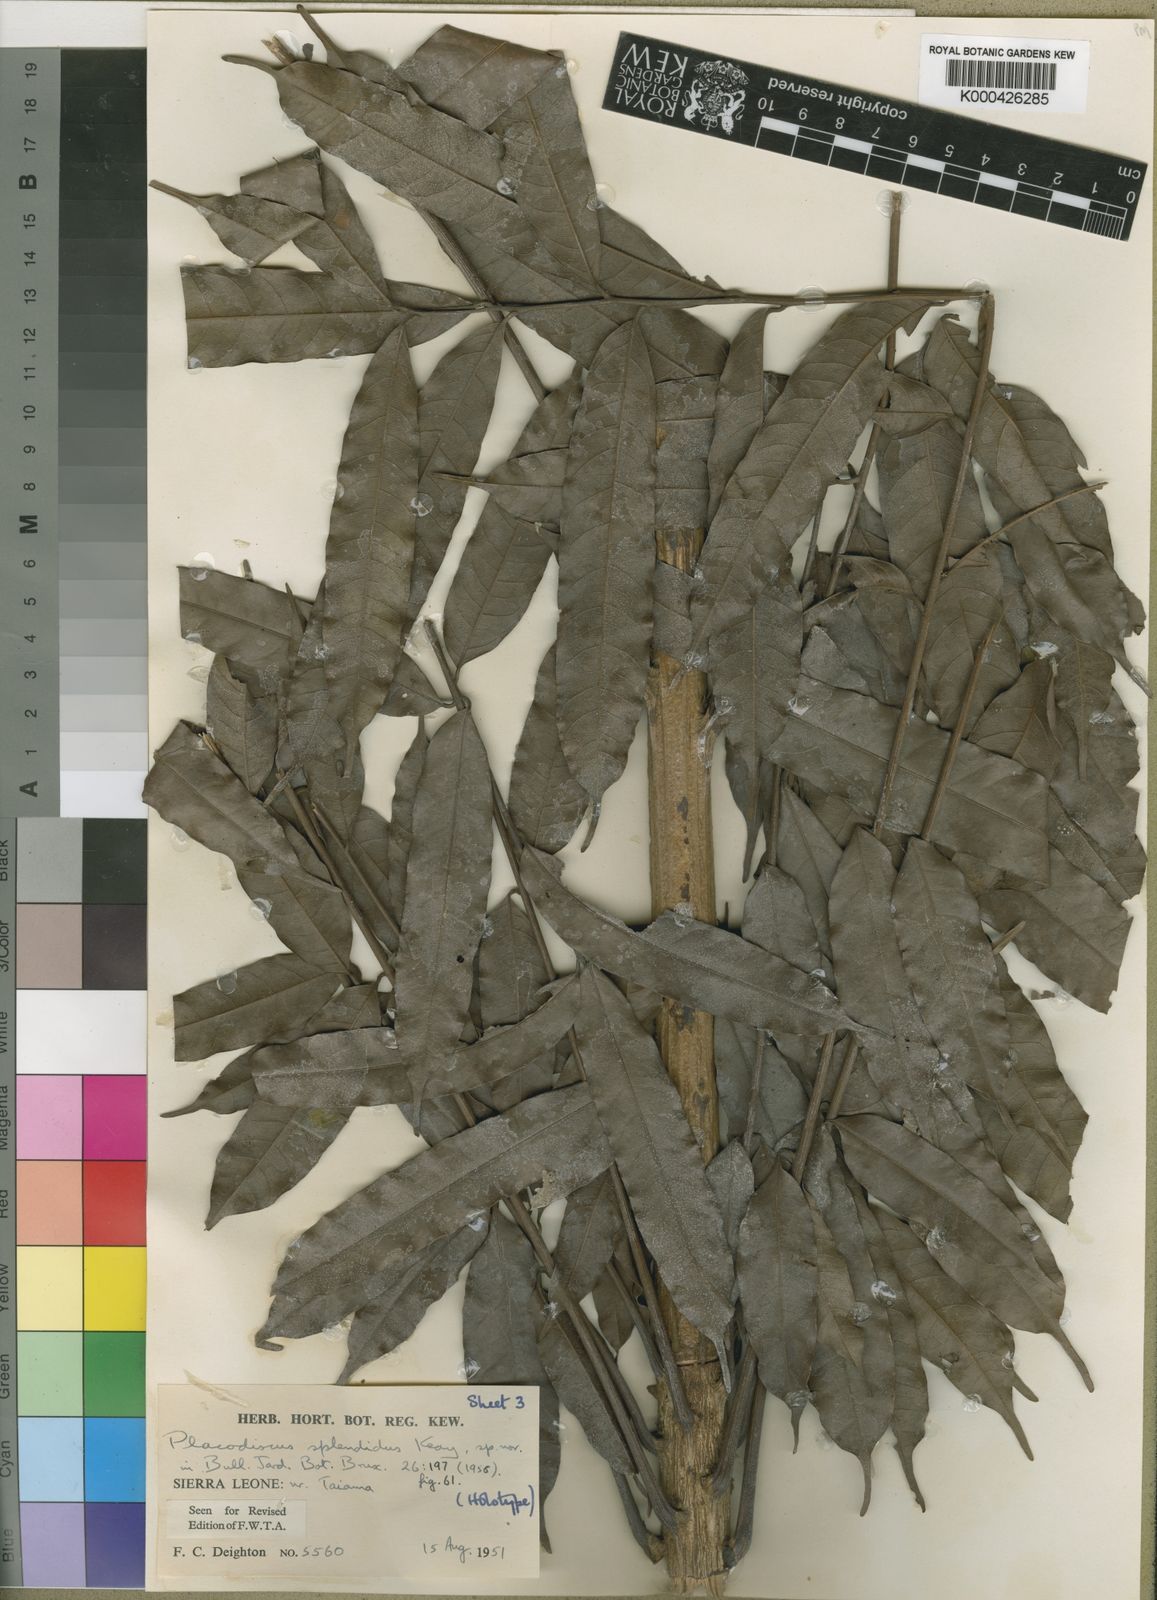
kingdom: Plantae
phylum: Tracheophyta
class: Magnoliopsida
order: Sapindales
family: Sapindaceae
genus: Placodiscus
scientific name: Placodiscus splendidus
